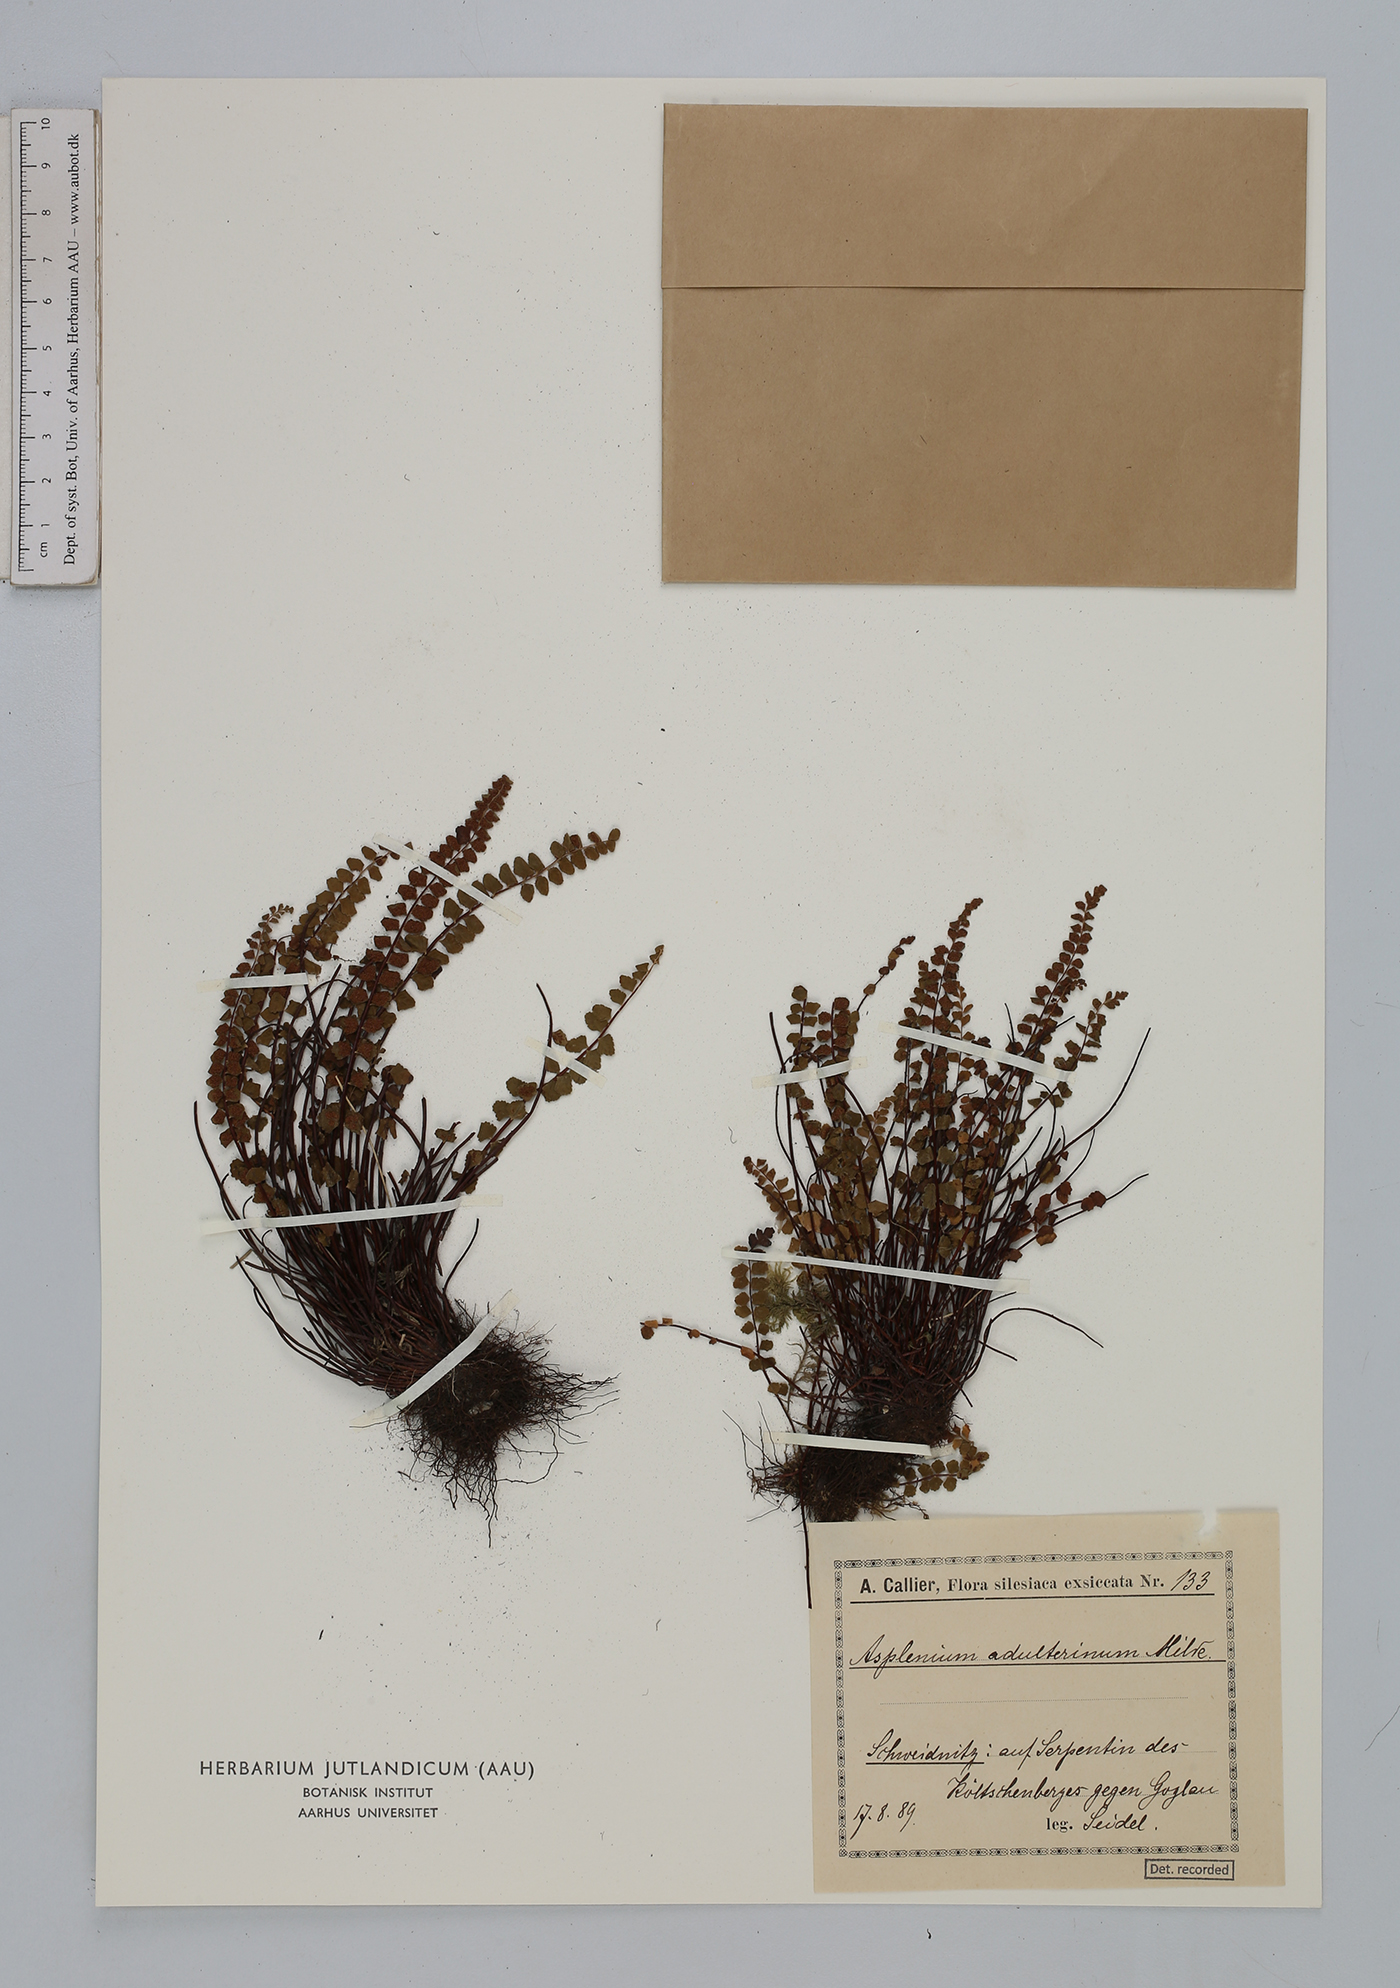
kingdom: Plantae
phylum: Tracheophyta
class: Polypodiopsida
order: Polypodiales
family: Aspleniaceae
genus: Asplenium
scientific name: Asplenium adulterinum
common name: Adulterated spleenwort
